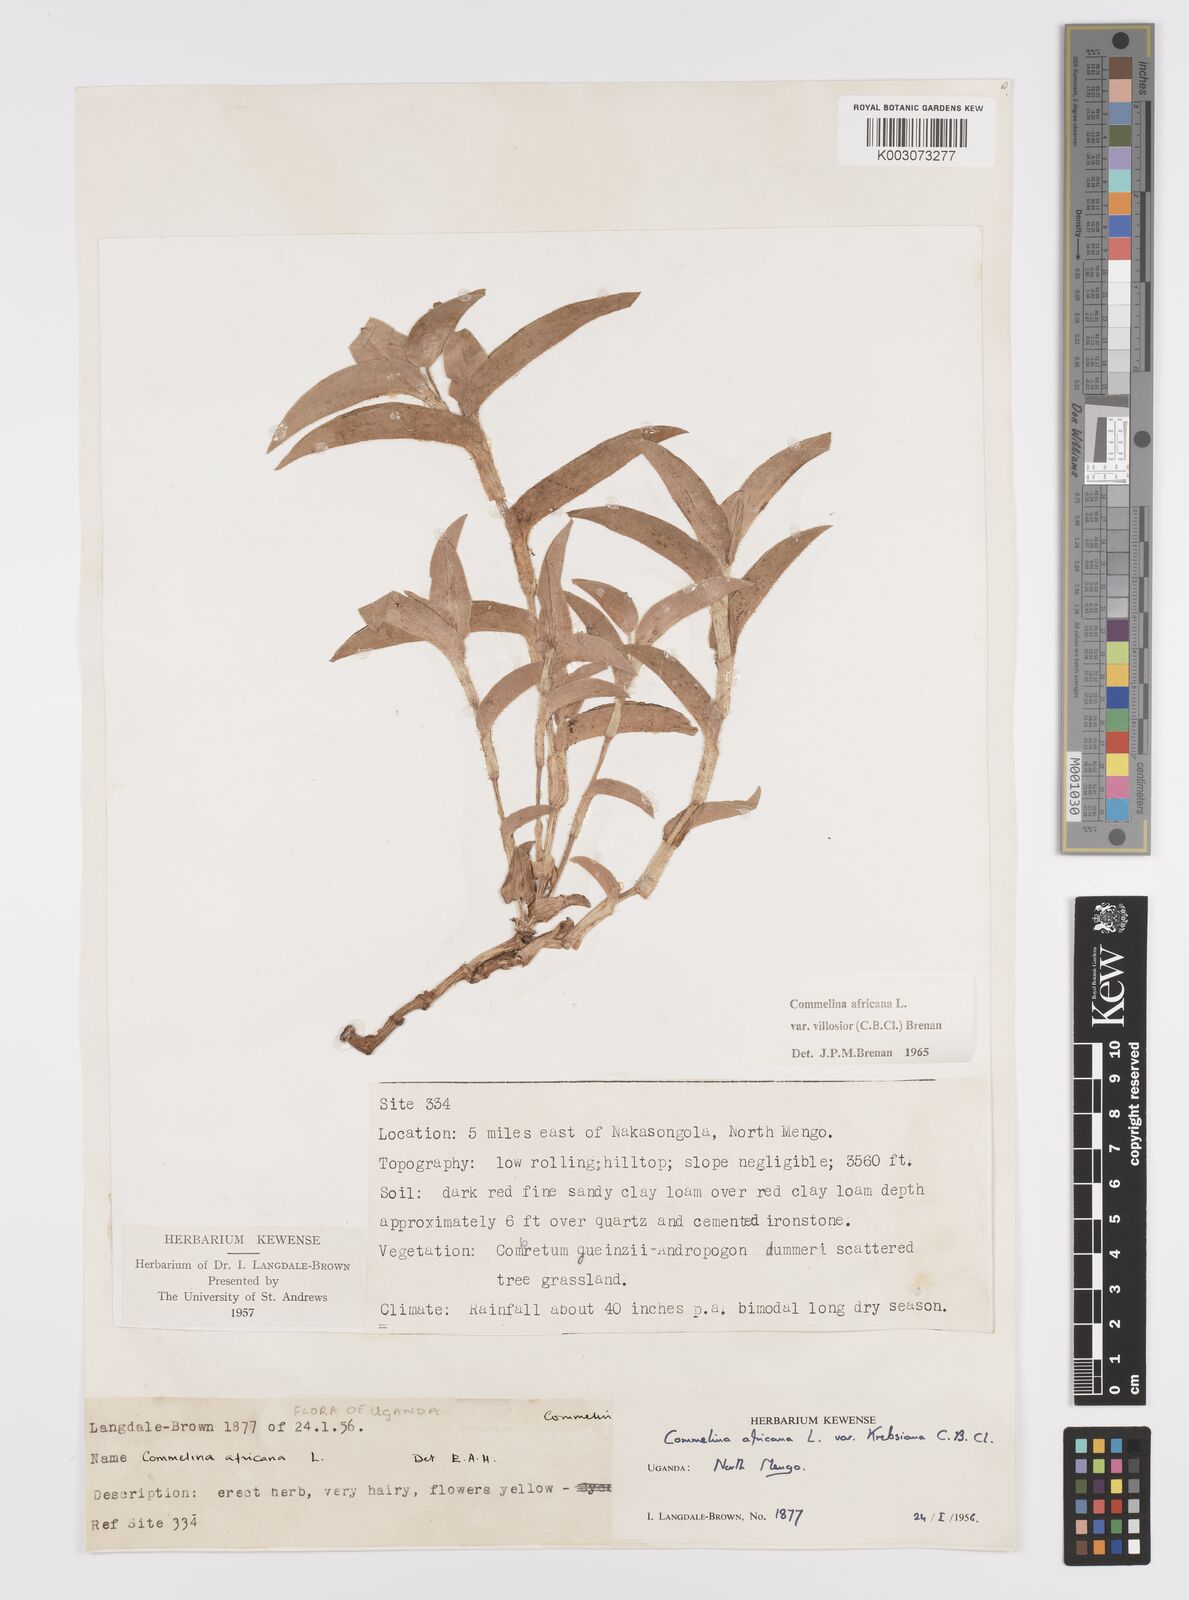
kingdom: Plantae
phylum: Tracheophyta
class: Liliopsida
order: Commelinales
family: Commelinaceae
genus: Commelina
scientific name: Commelina africana
